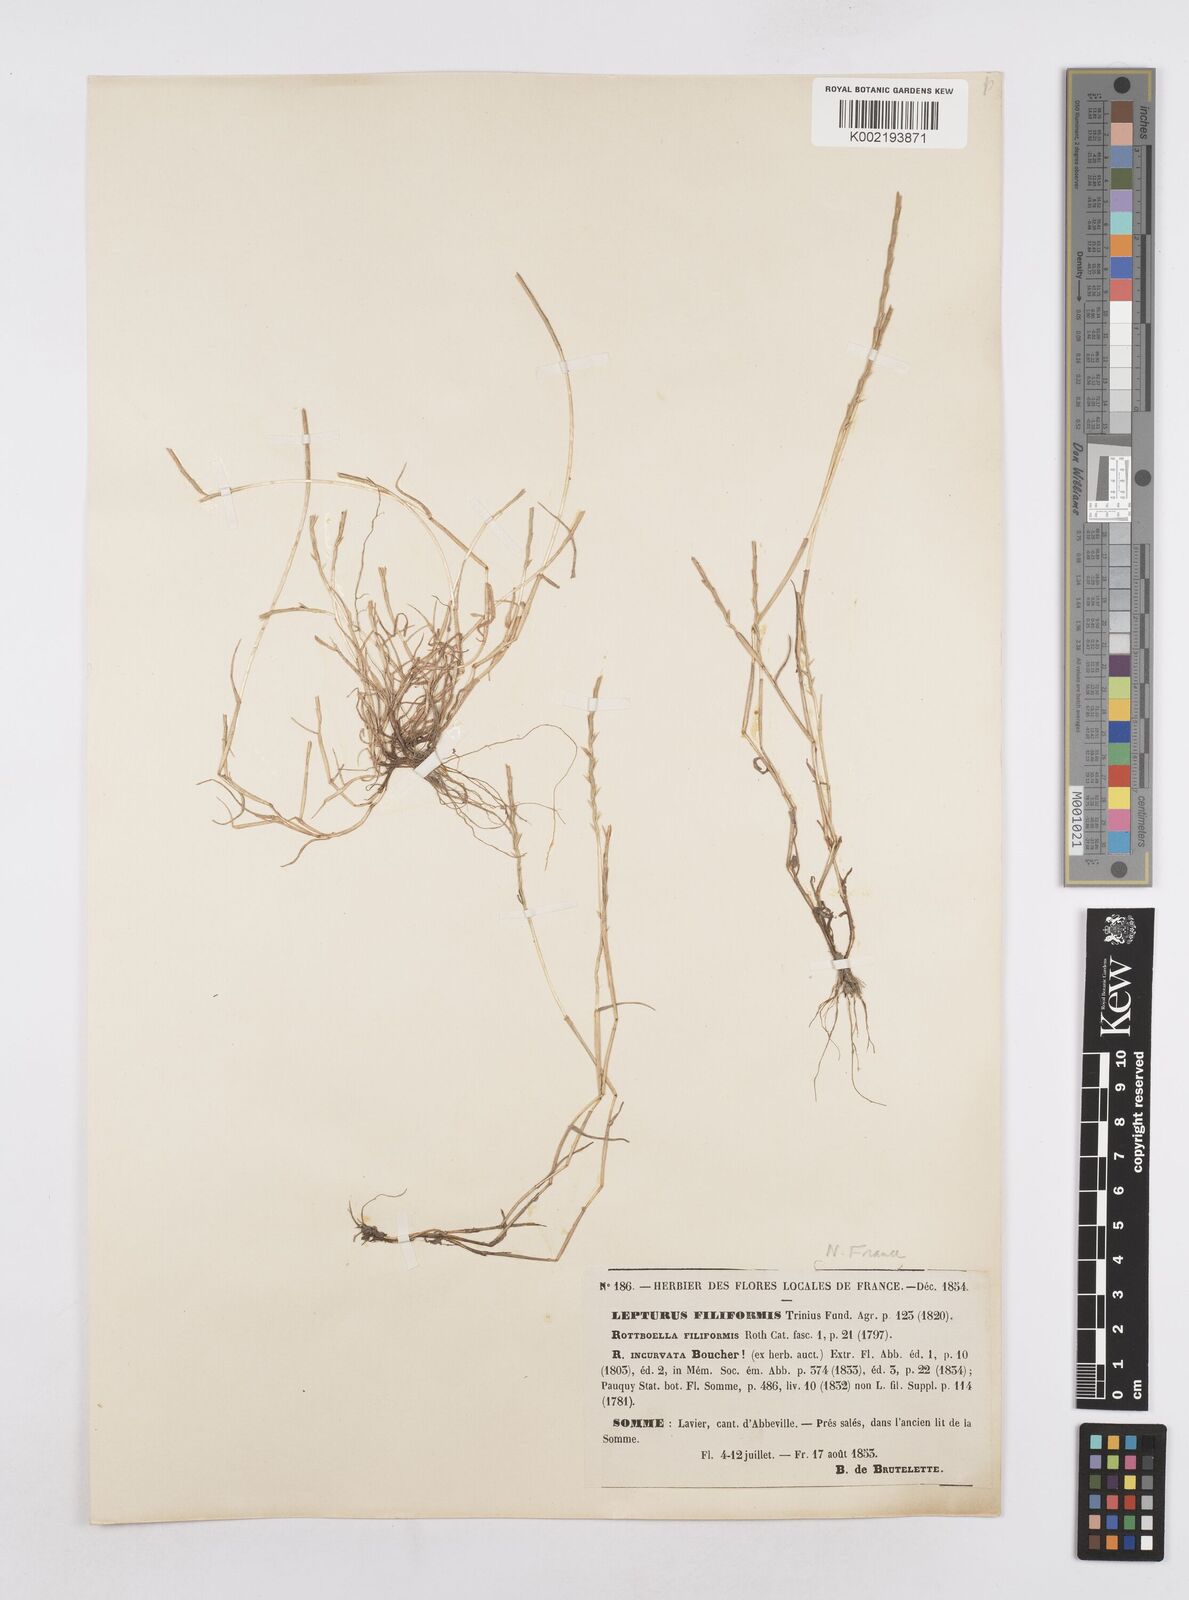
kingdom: Plantae
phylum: Tracheophyta
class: Liliopsida
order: Poales
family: Poaceae
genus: Parapholis
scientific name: Parapholis strigosa
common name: Hard-grass
